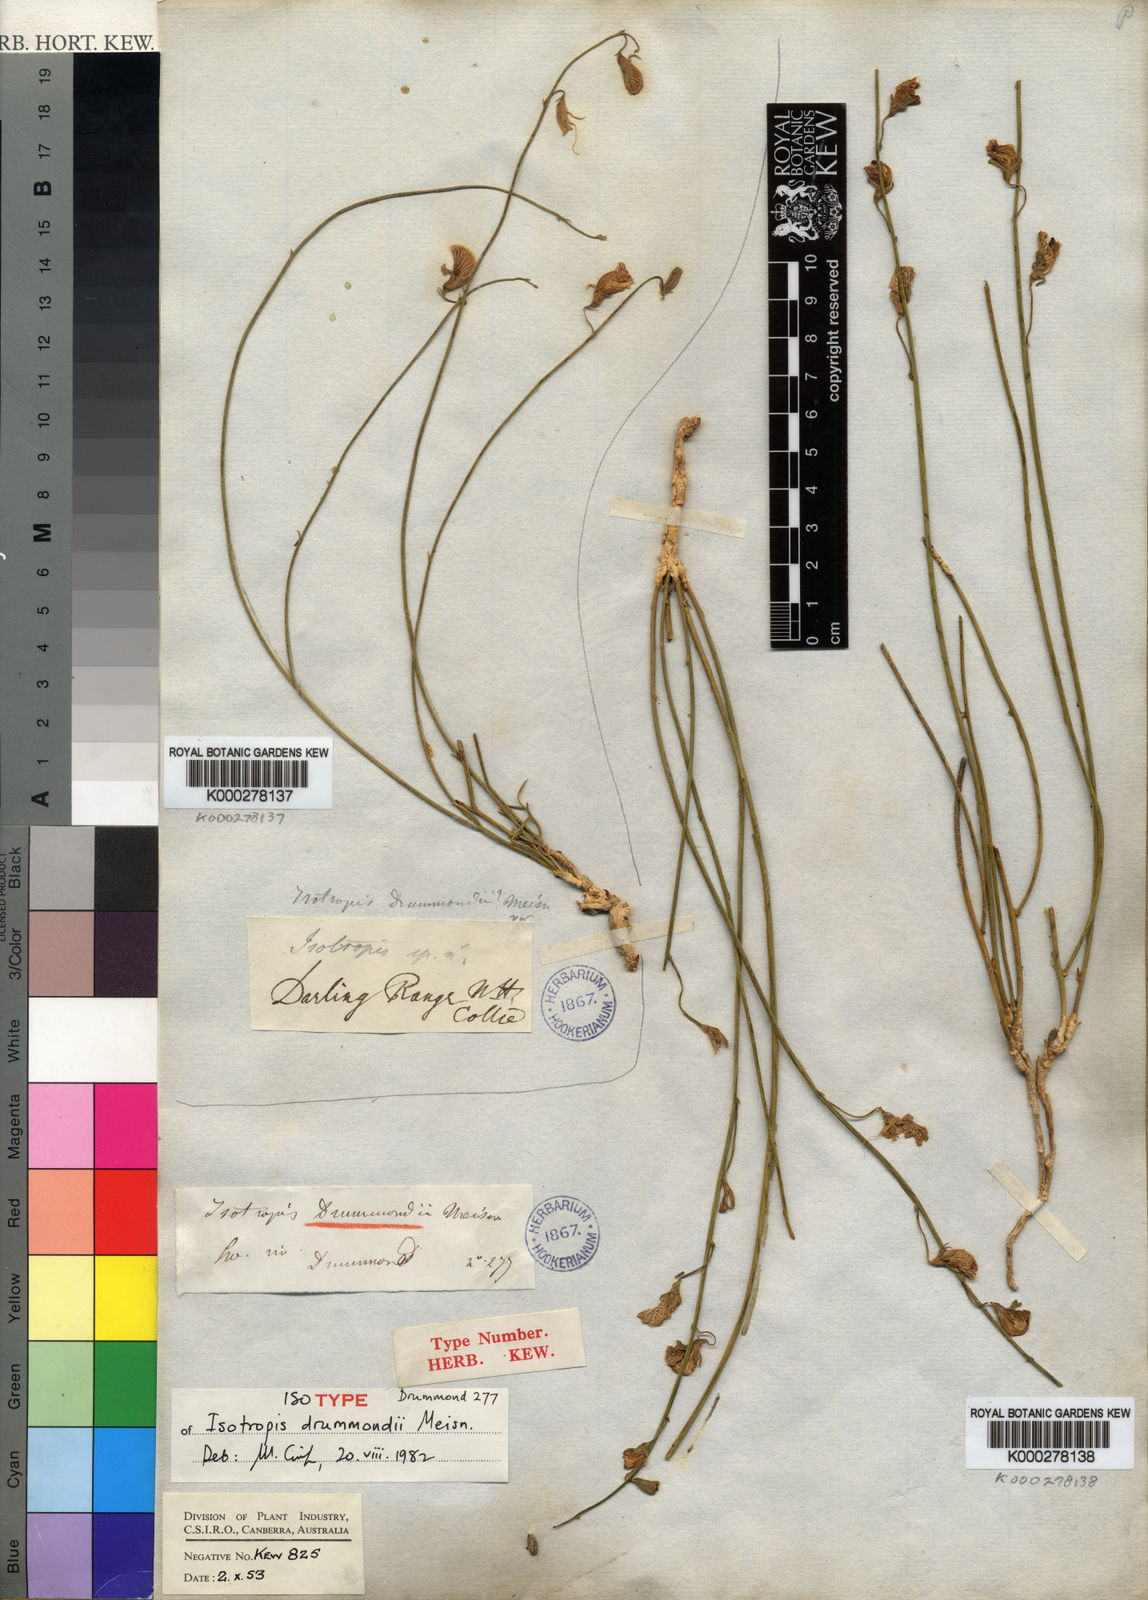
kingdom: Plantae
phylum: Tracheophyta
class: Magnoliopsida
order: Fabales
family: Fabaceae
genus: Isotropis
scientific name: Isotropis drummondii
